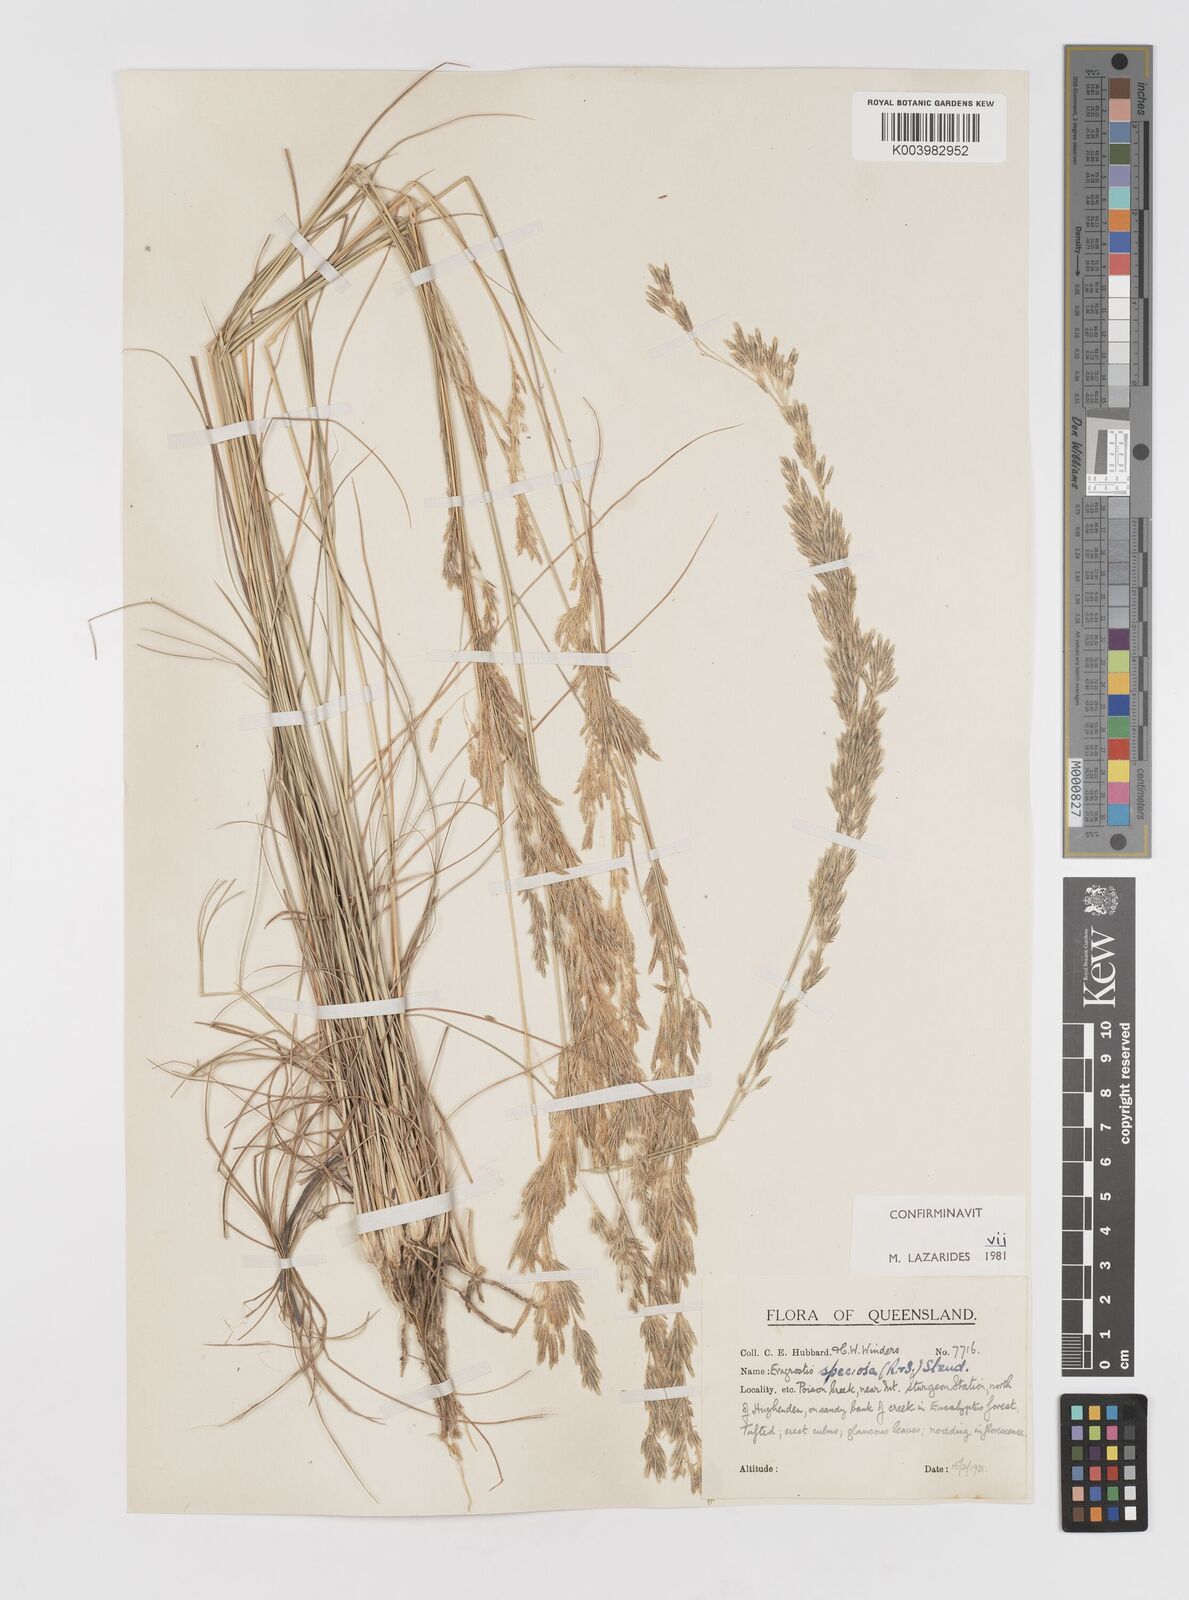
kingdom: Plantae
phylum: Tracheophyta
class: Liliopsida
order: Poales
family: Poaceae
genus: Eragrostis
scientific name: Eragrostis speciosa
